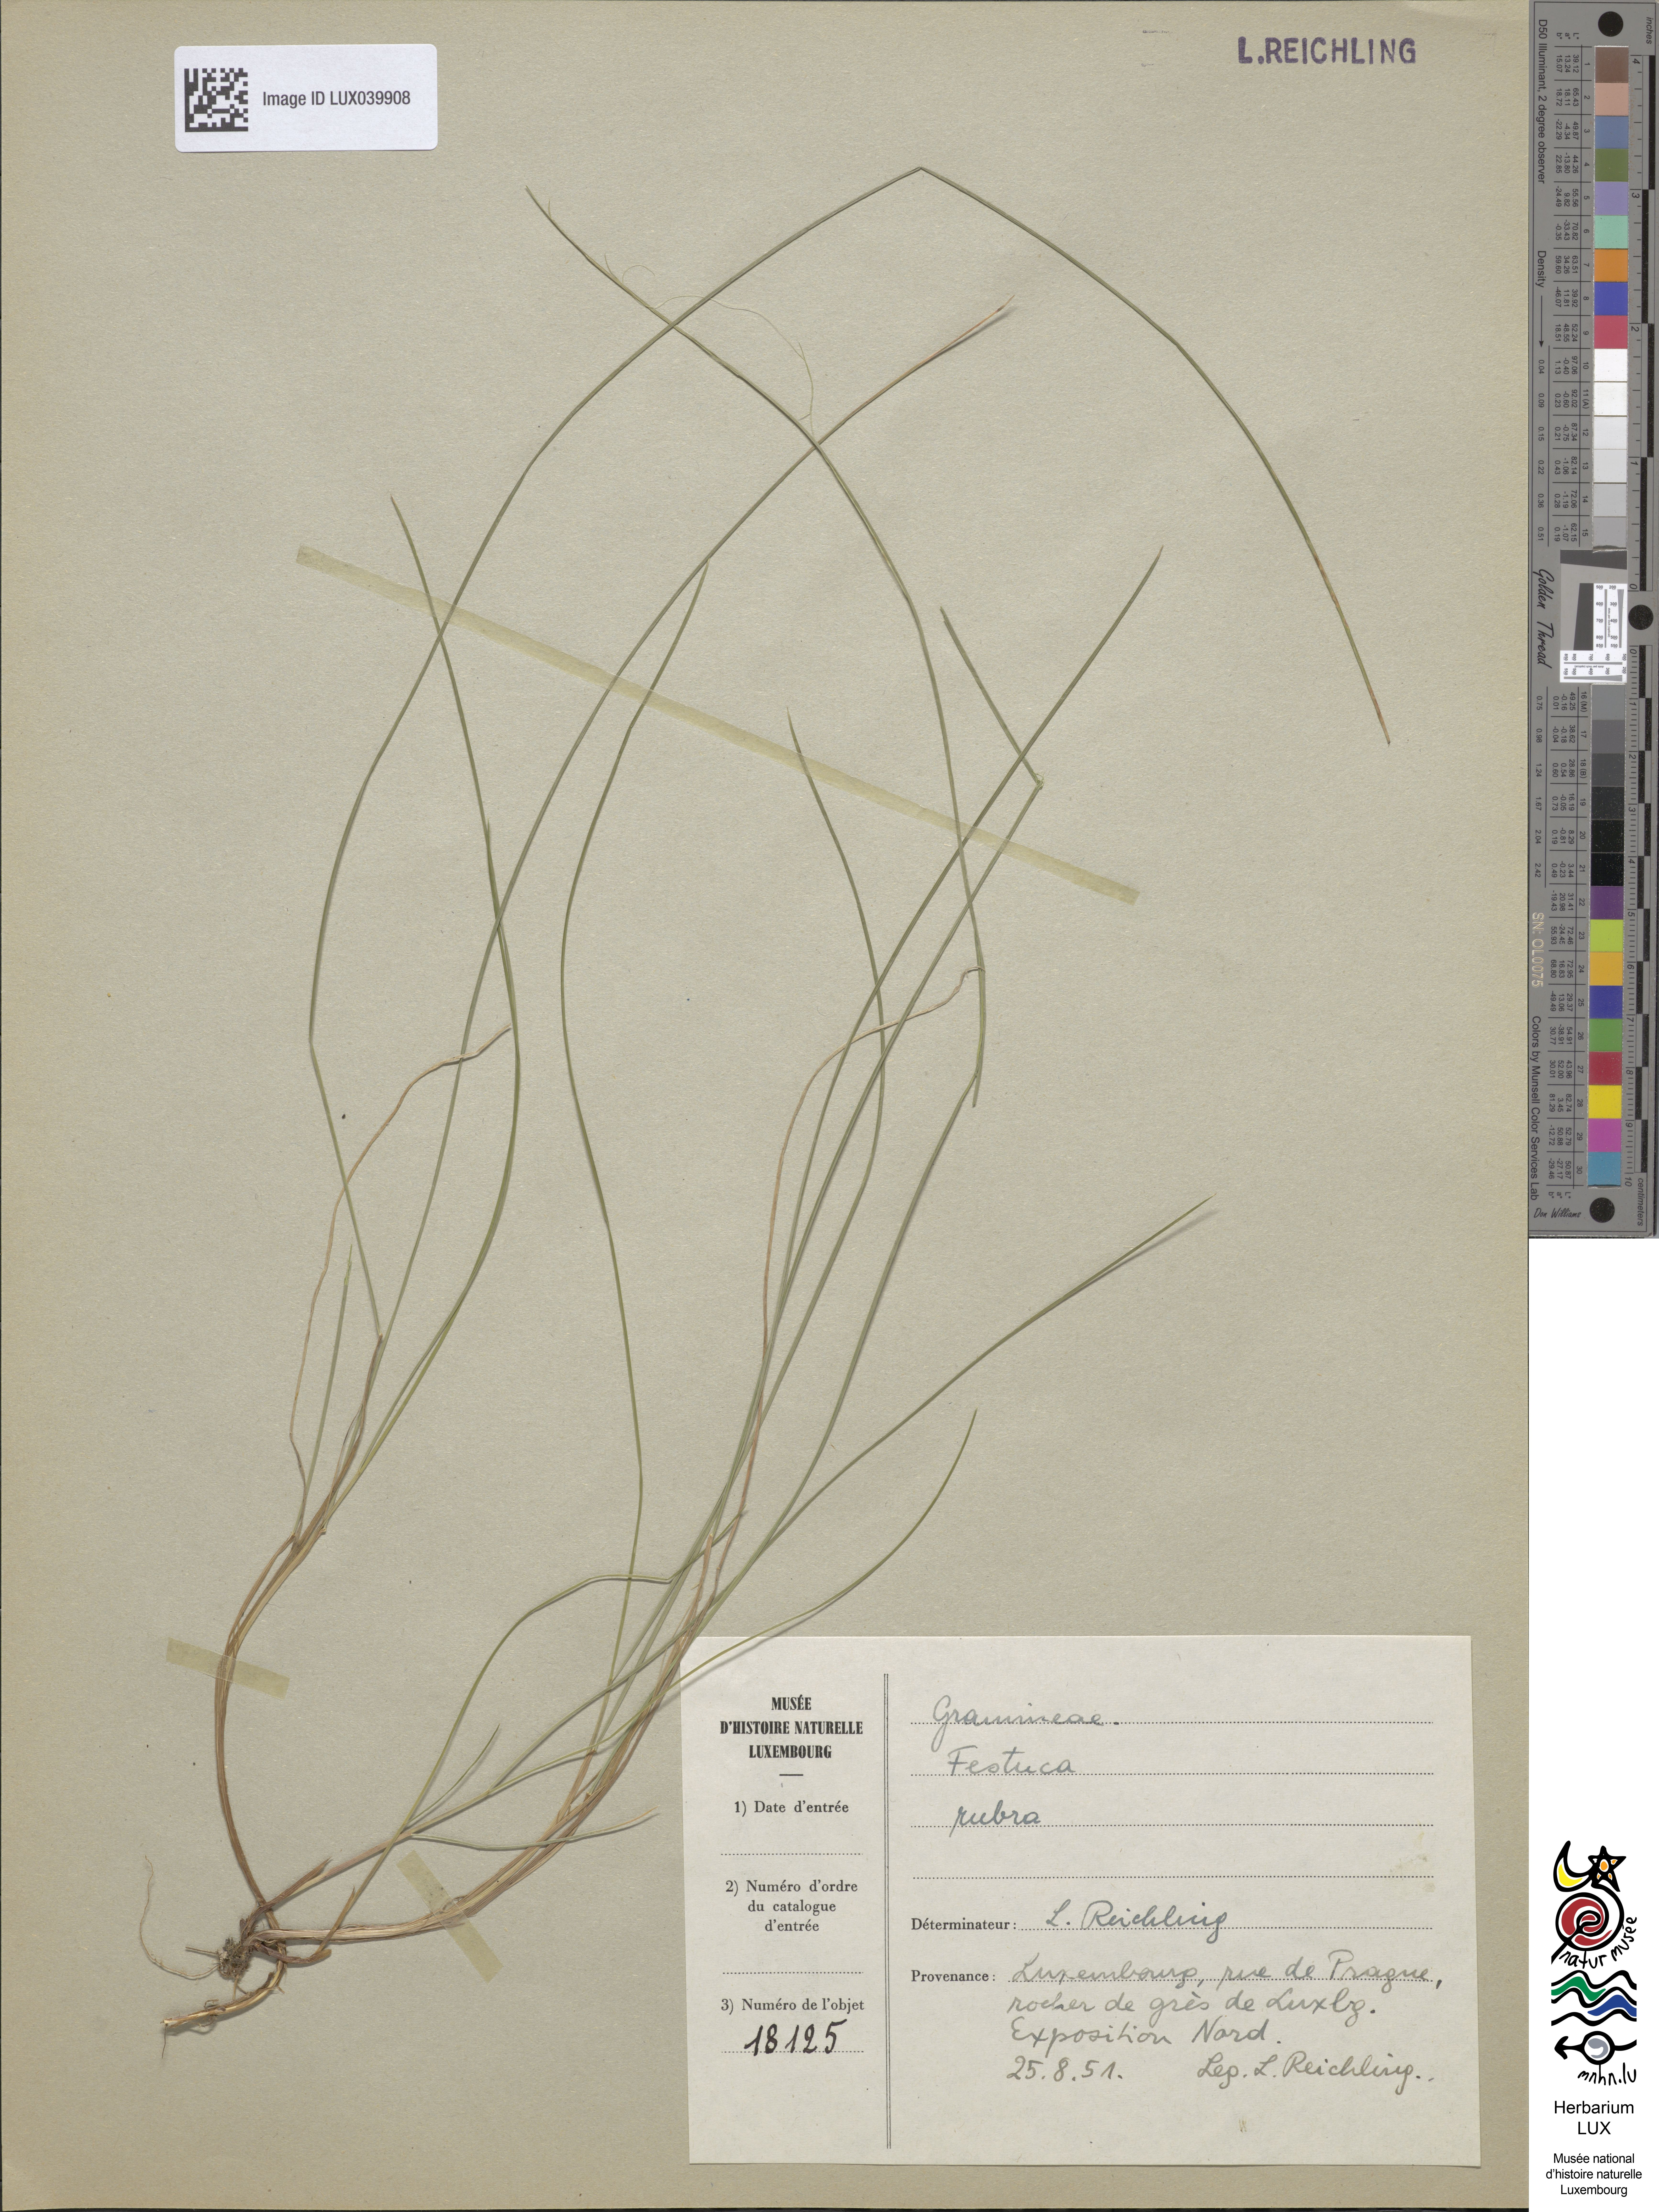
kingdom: Plantae
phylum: Tracheophyta
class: Liliopsida
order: Poales
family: Poaceae
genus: Festuca
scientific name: Festuca rubra
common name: Red fescue
